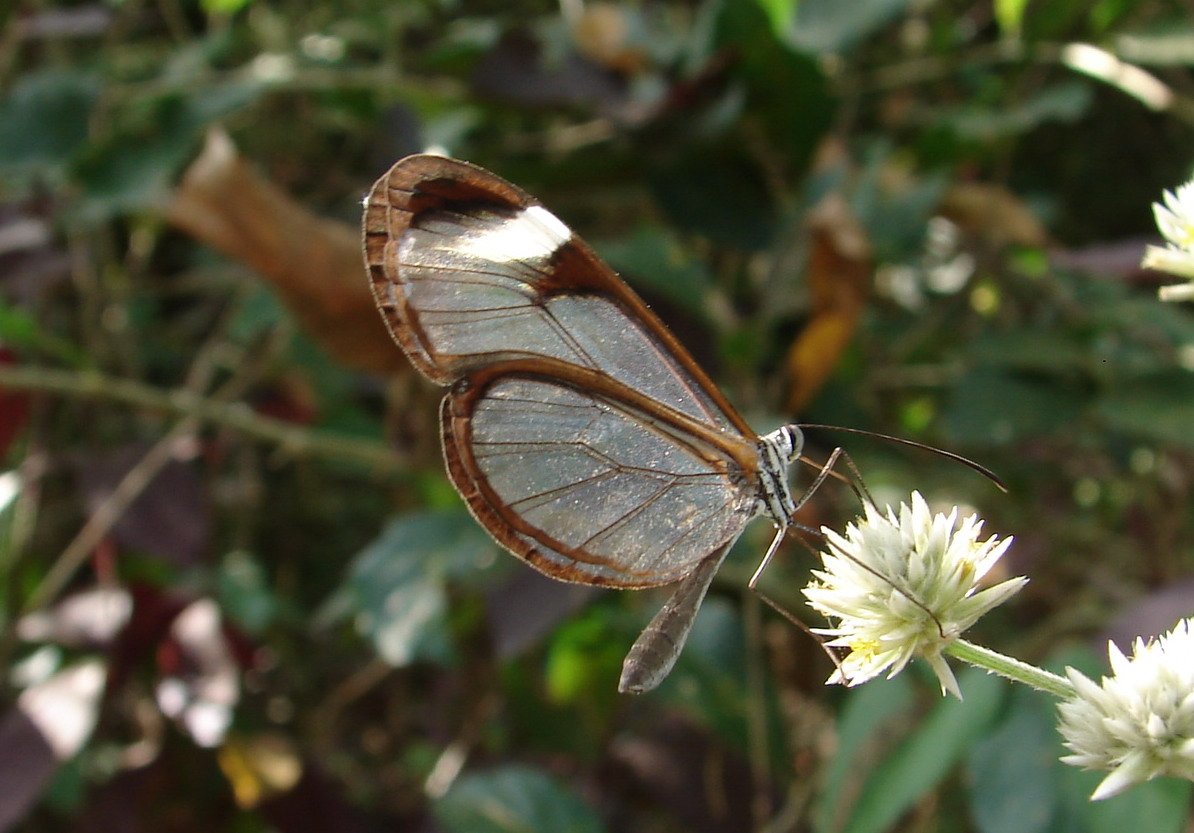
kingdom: Animalia
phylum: Arthropoda
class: Insecta
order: Lepidoptera
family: Nymphalidae
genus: Pteronymia
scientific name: Pteronymia cotytto
